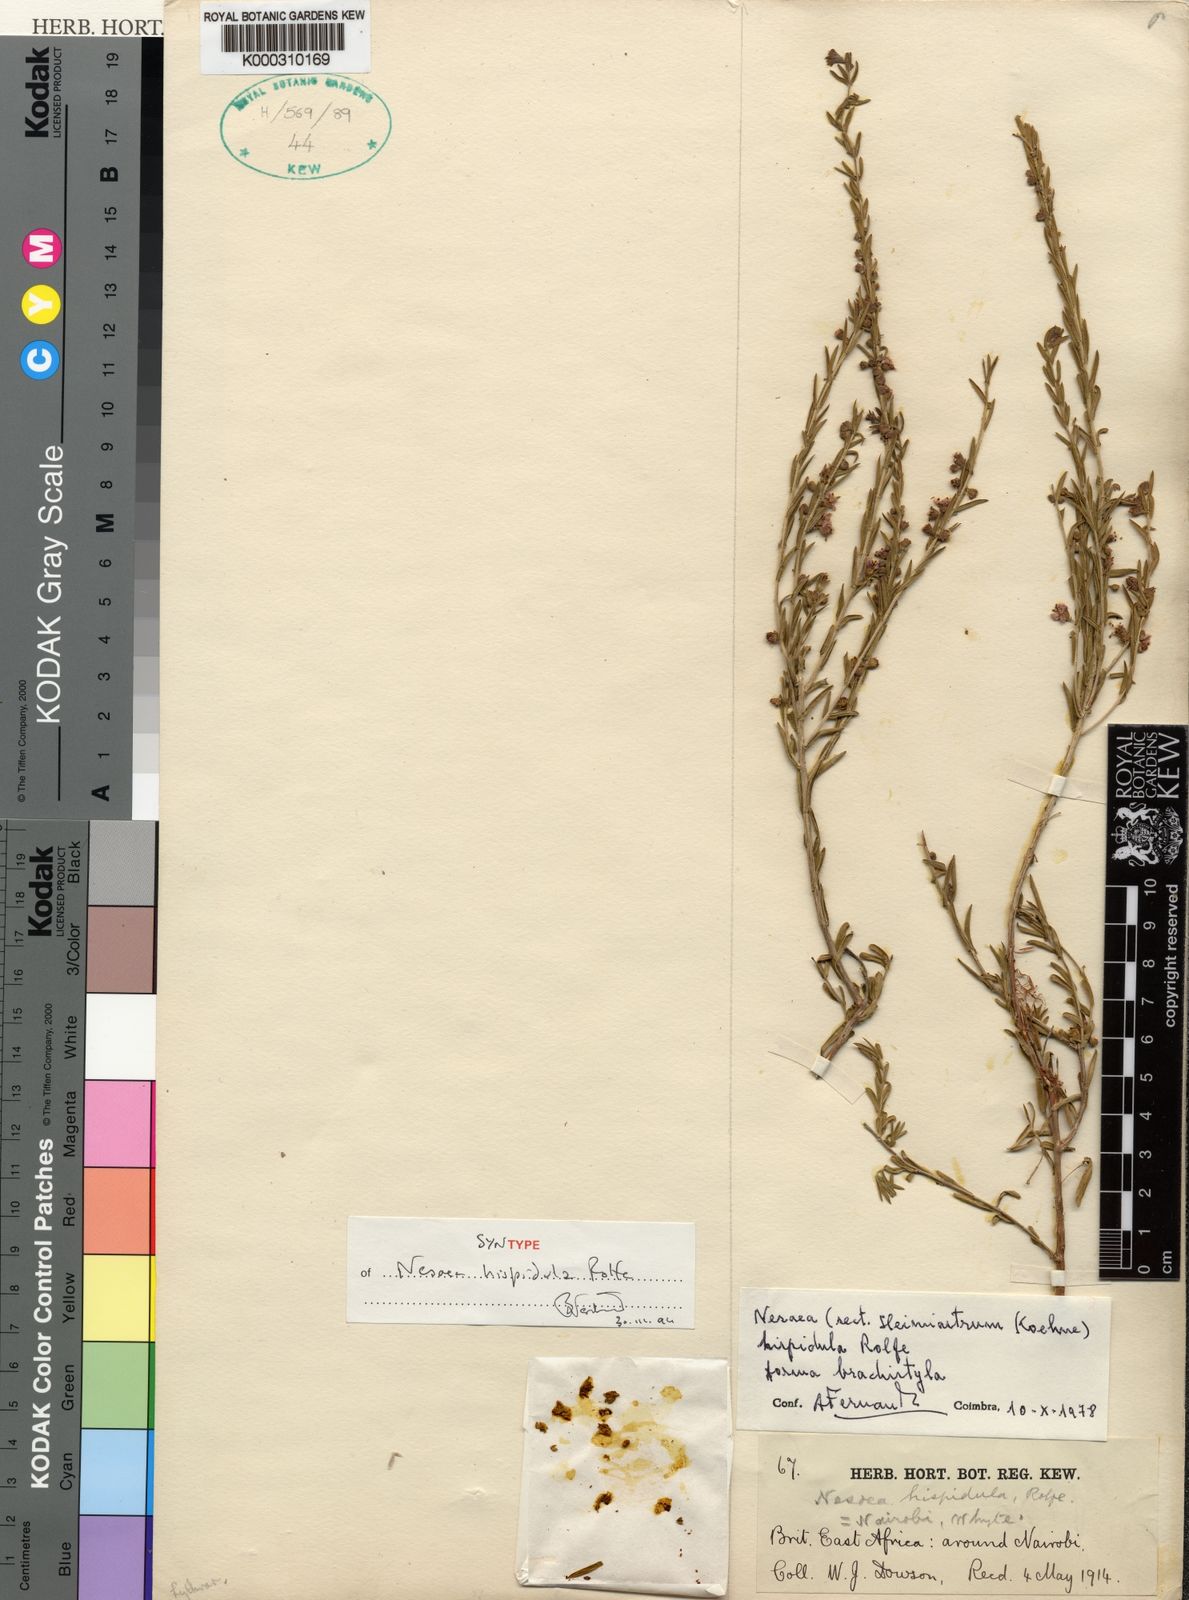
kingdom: Plantae
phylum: Tracheophyta
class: Magnoliopsida
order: Myrtales
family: Lythraceae
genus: Ammannia
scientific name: Ammannia kilimandscharica
